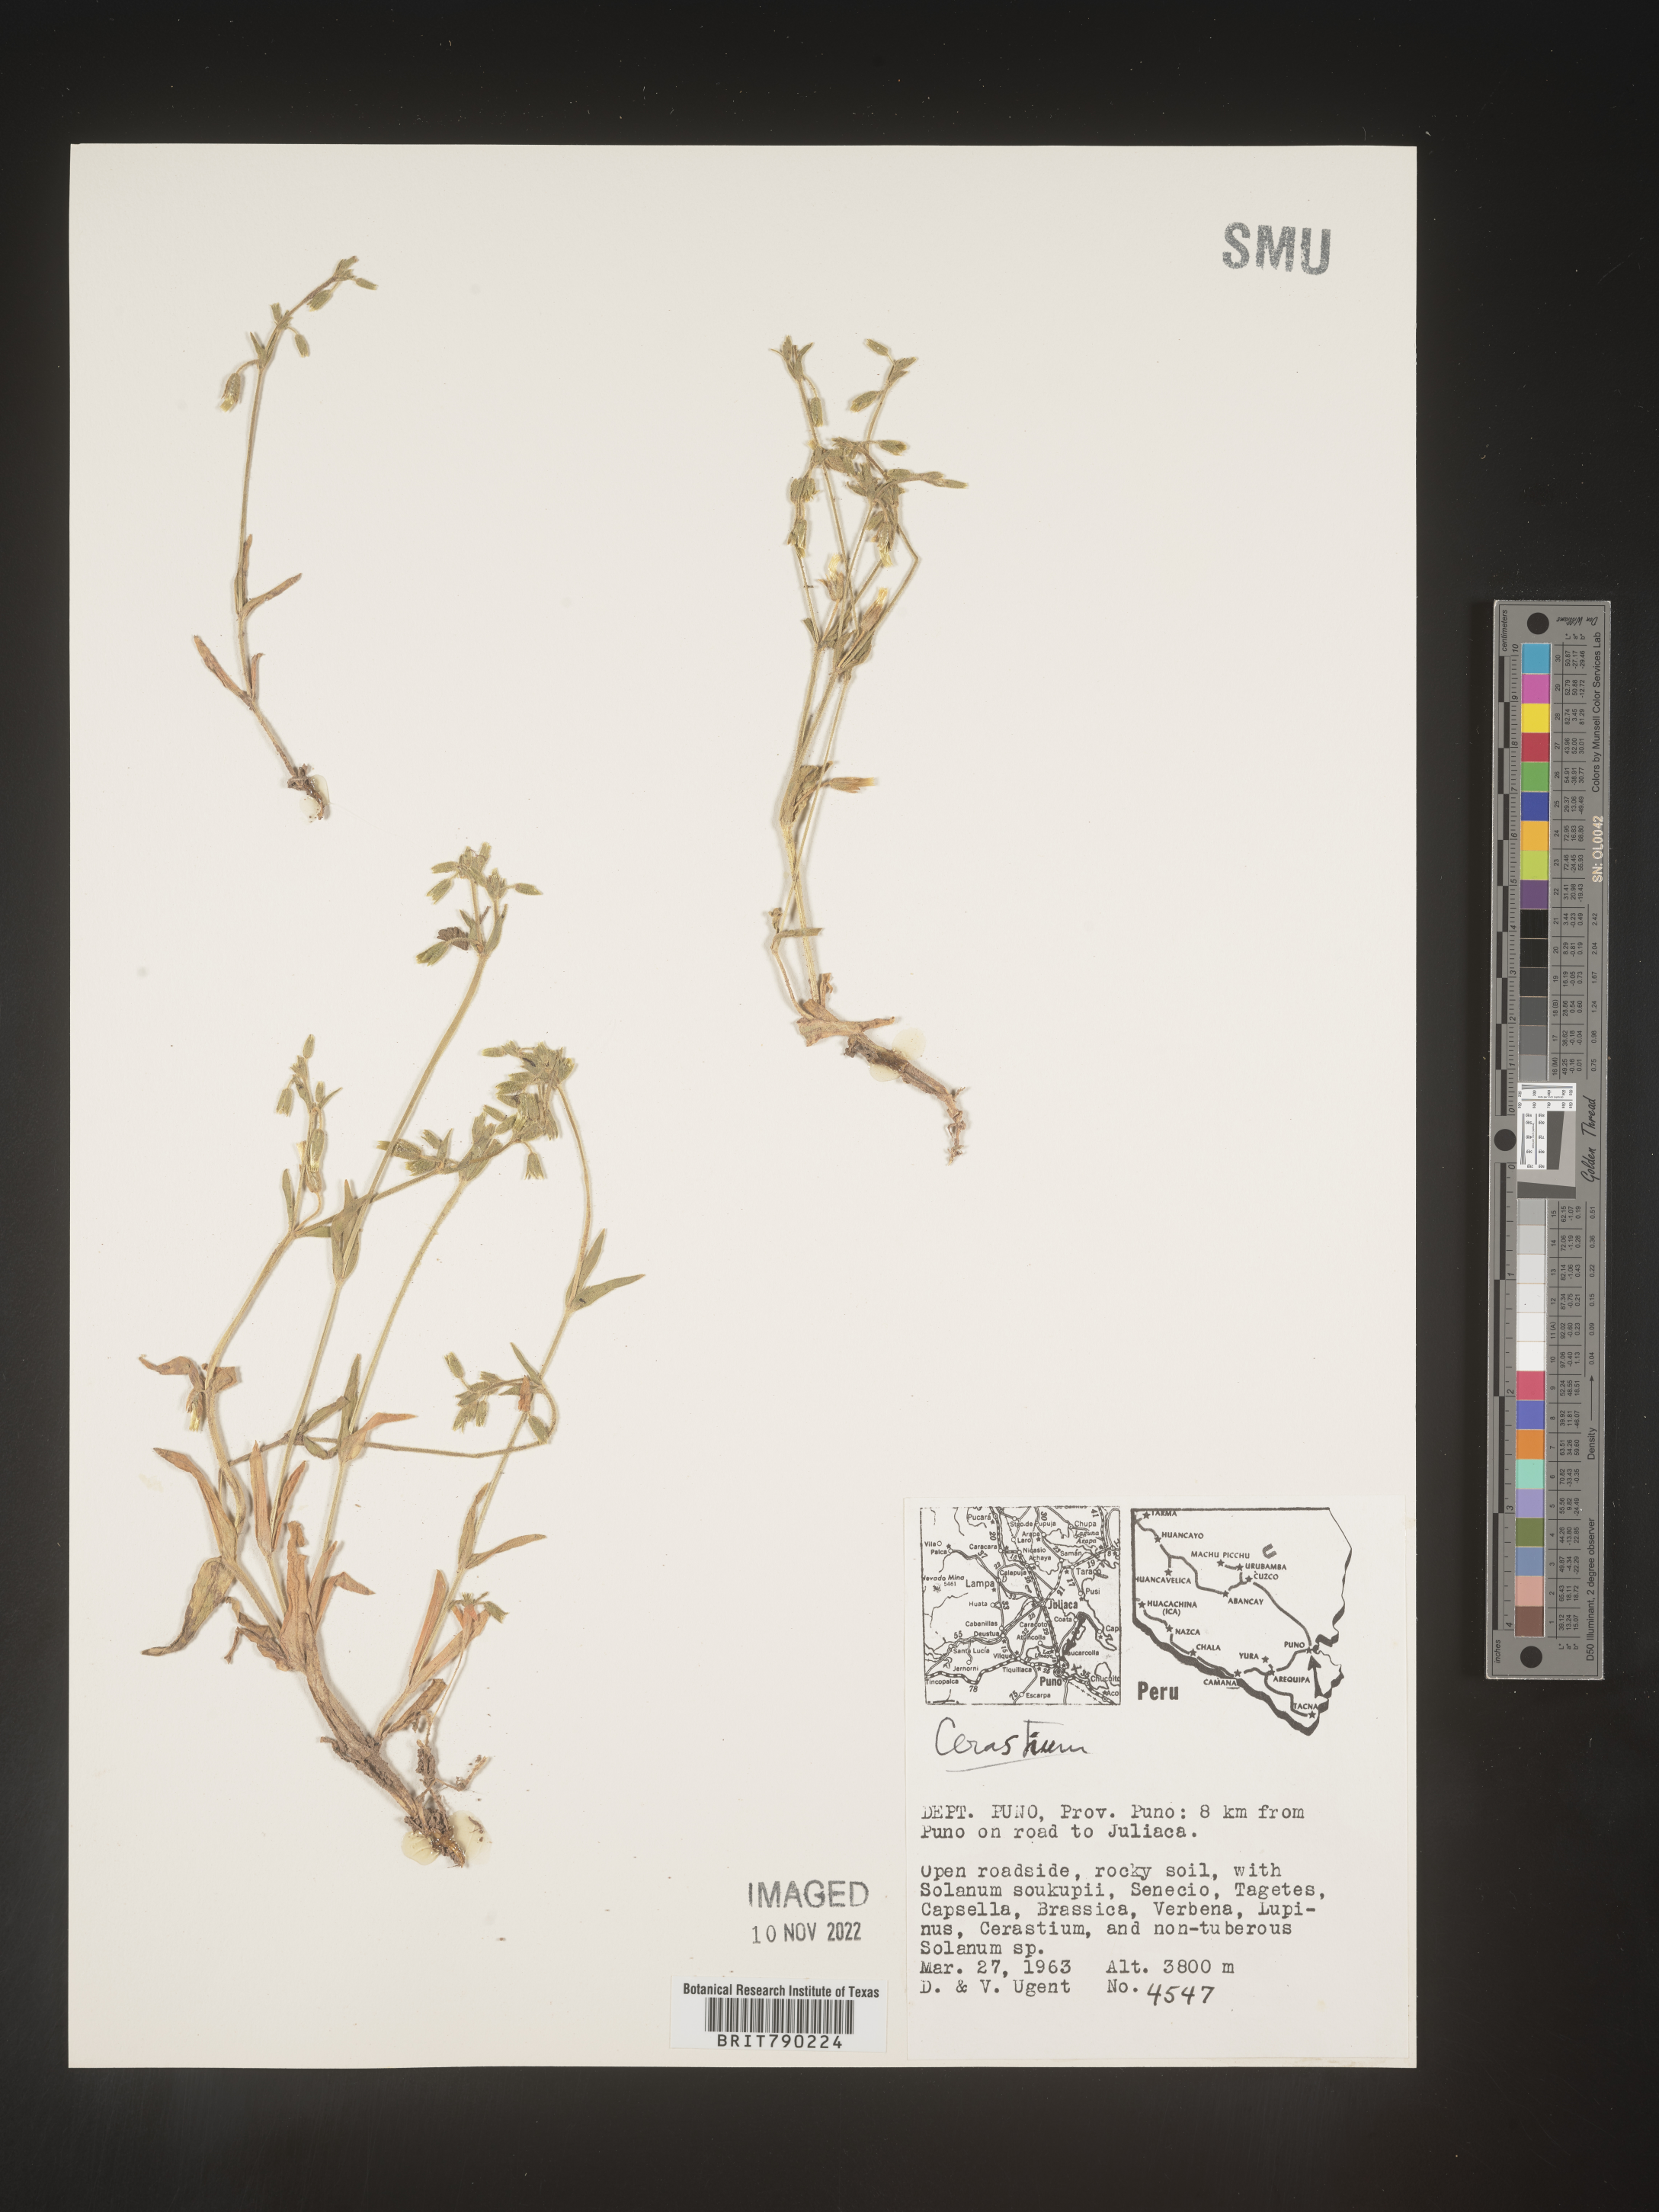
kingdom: Plantae
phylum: Tracheophyta
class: Magnoliopsida
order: Caryophyllales
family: Caryophyllaceae
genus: Cerastium
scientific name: Cerastium
